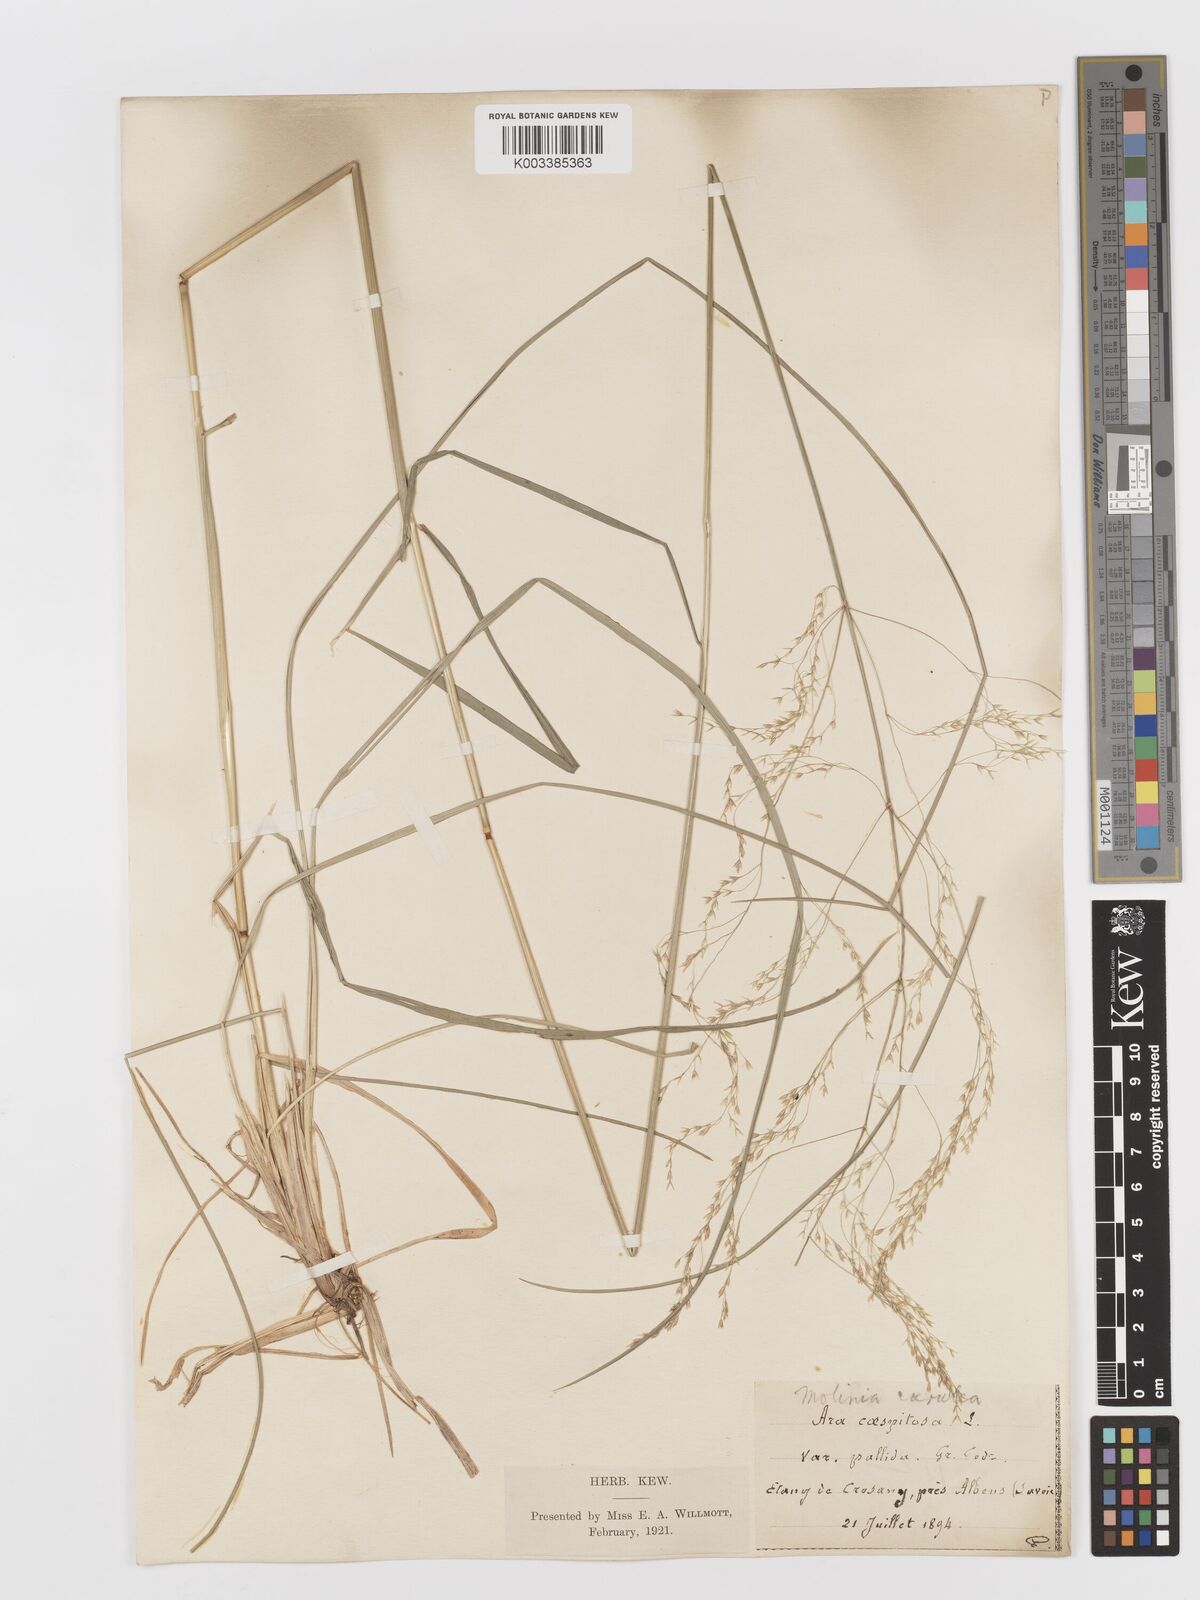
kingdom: Plantae
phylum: Tracheophyta
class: Liliopsida
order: Poales
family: Poaceae
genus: Deschampsia
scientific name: Deschampsia cespitosa
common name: Tufted hair-grass
